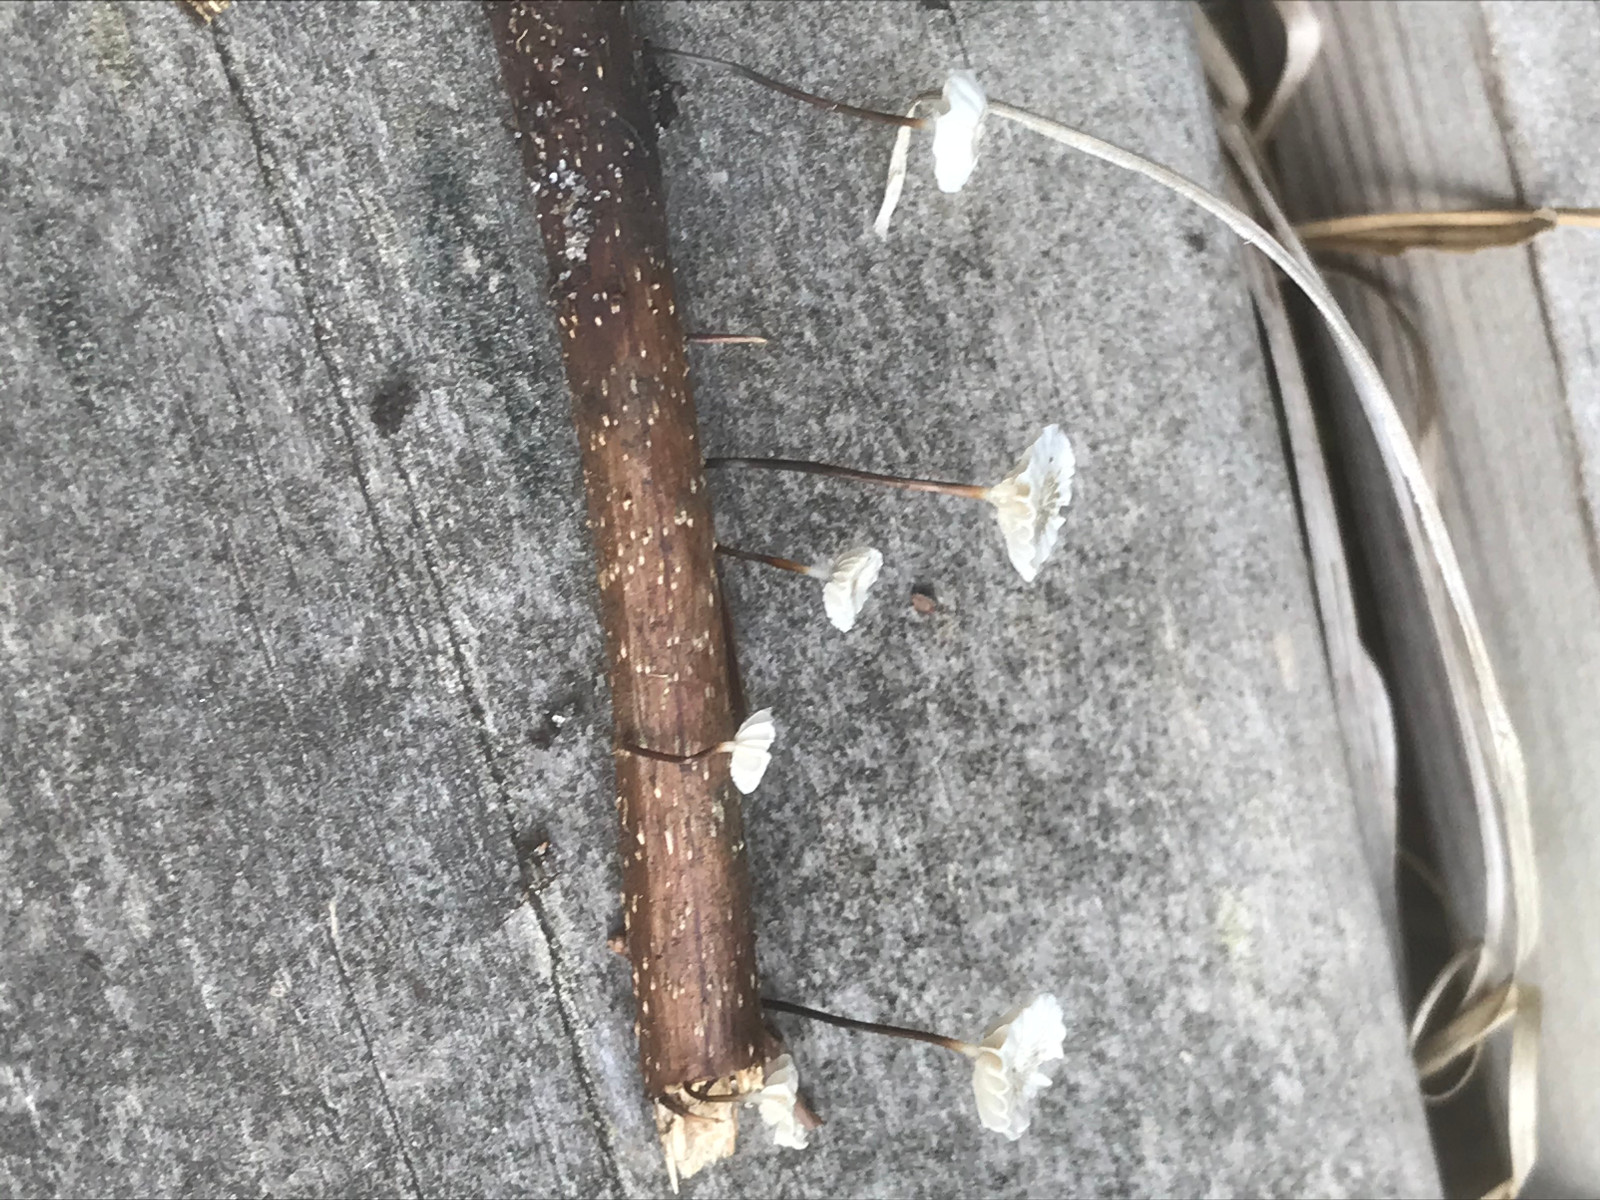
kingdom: Fungi
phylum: Basidiomycota
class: Agaricomycetes
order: Agaricales
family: Marasmiaceae
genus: Marasmius
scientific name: Marasmius rotula
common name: hjul-bruskhat
